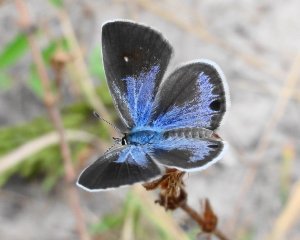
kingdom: Animalia
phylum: Arthropoda
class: Insecta
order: Lepidoptera
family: Lycaenidae
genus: Hemiargus
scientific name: Hemiargus ceraunus
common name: Ceraunus Blue
